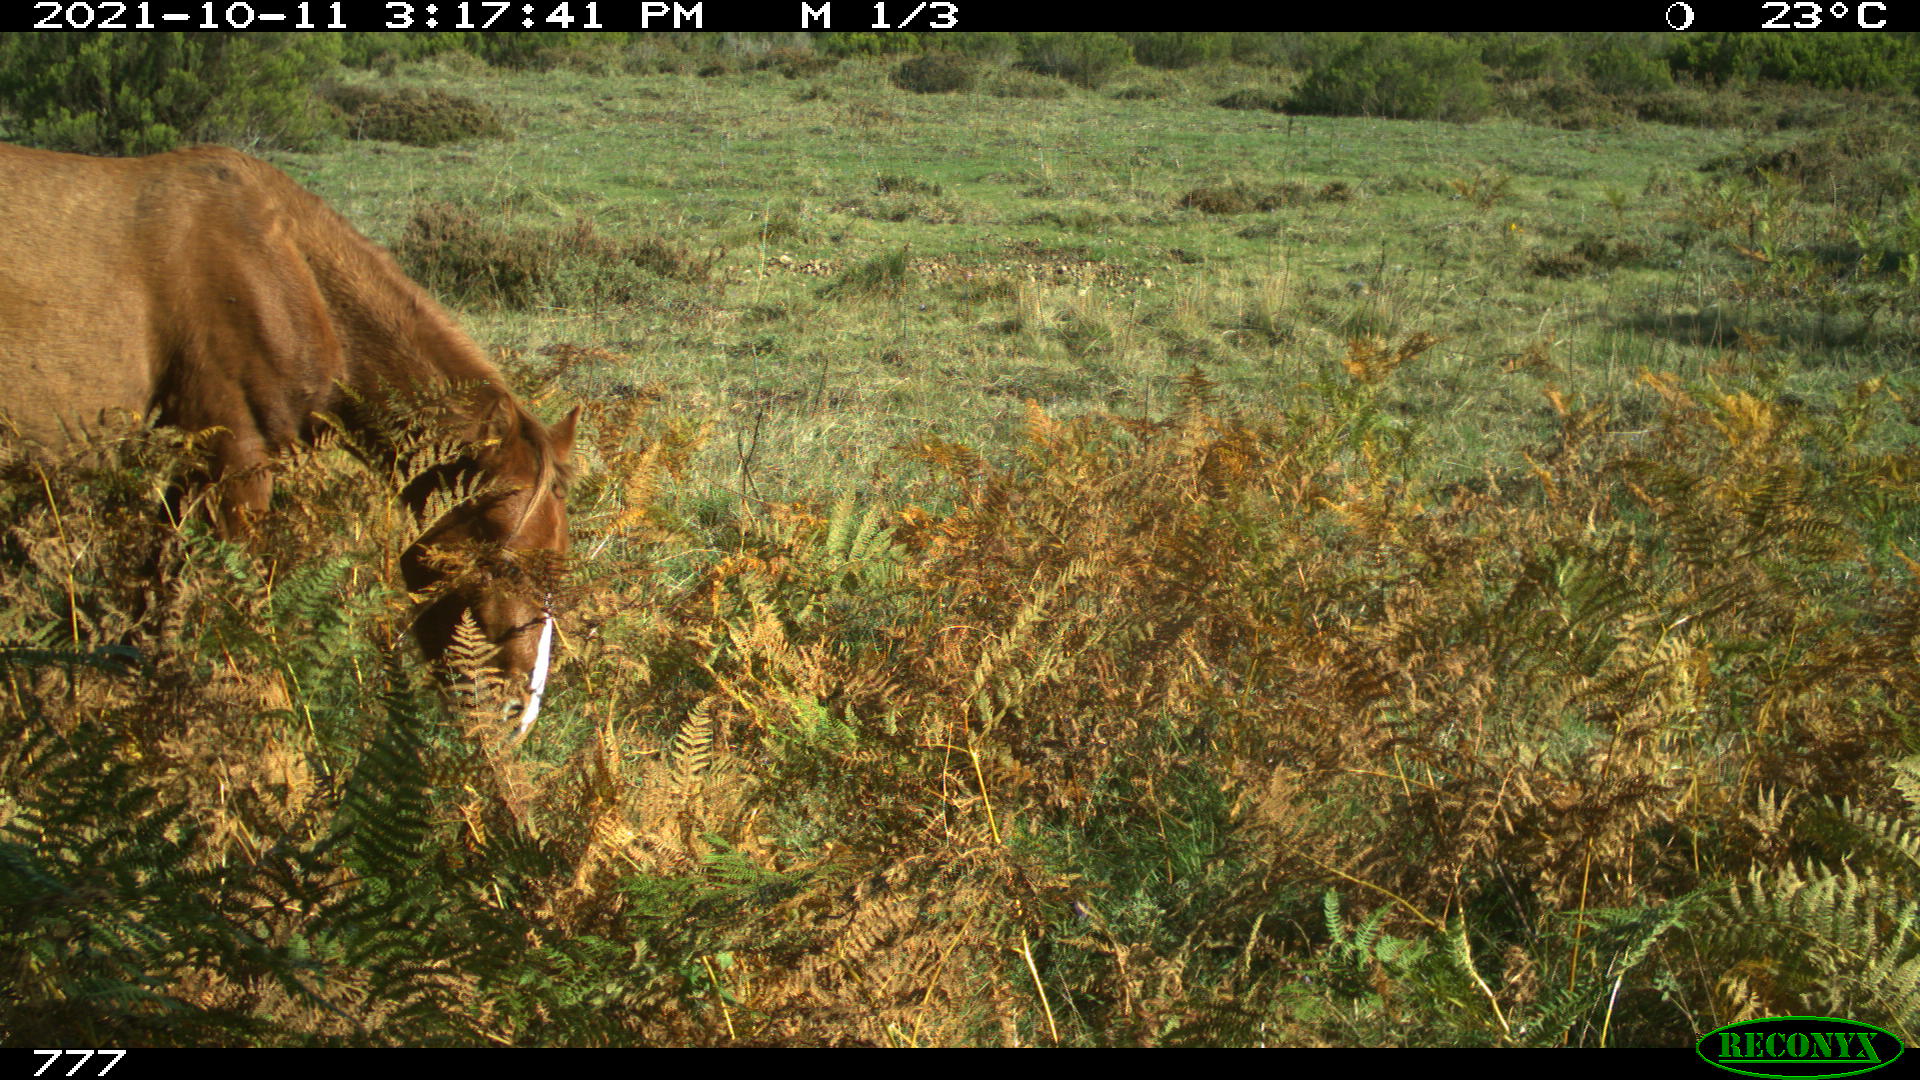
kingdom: Animalia
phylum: Chordata
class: Mammalia
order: Perissodactyla
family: Equidae
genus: Equus
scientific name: Equus caballus
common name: Horse
